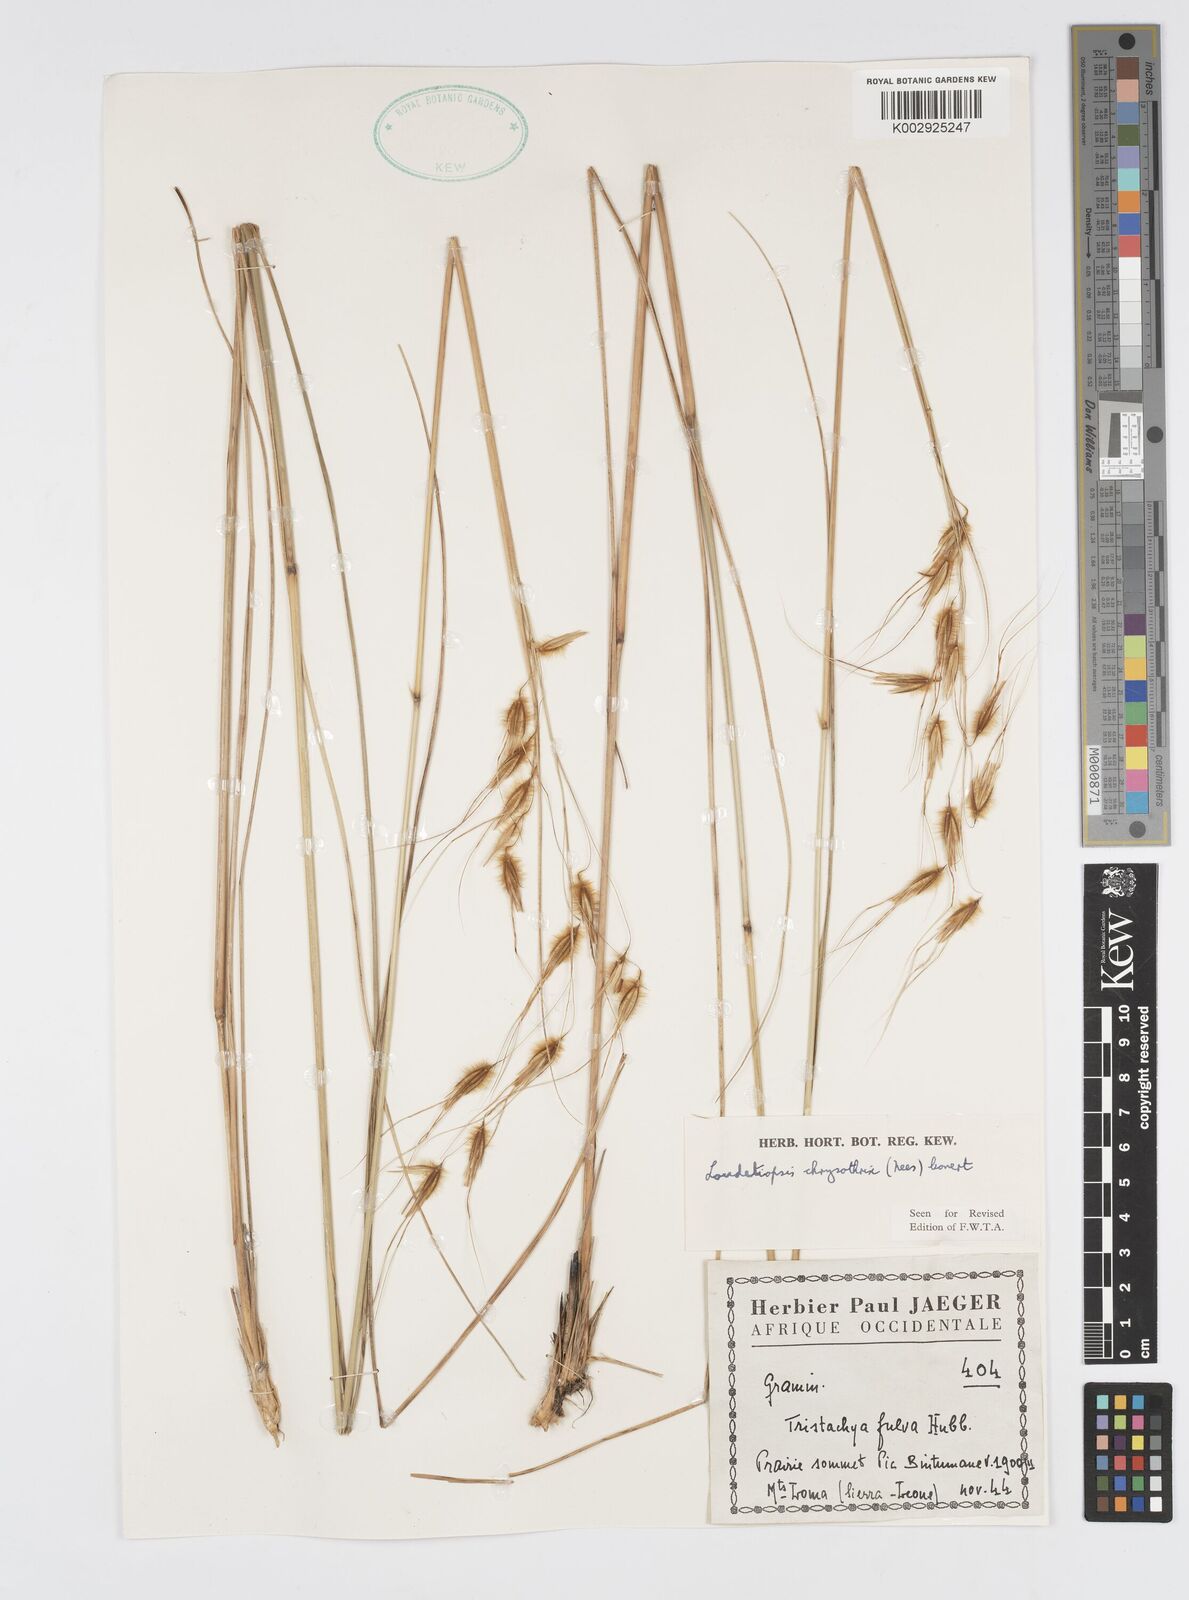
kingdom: Plantae
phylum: Tracheophyta
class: Liliopsida
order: Poales
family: Poaceae
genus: Loudetiopsis
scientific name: Loudetiopsis chrysothrix
